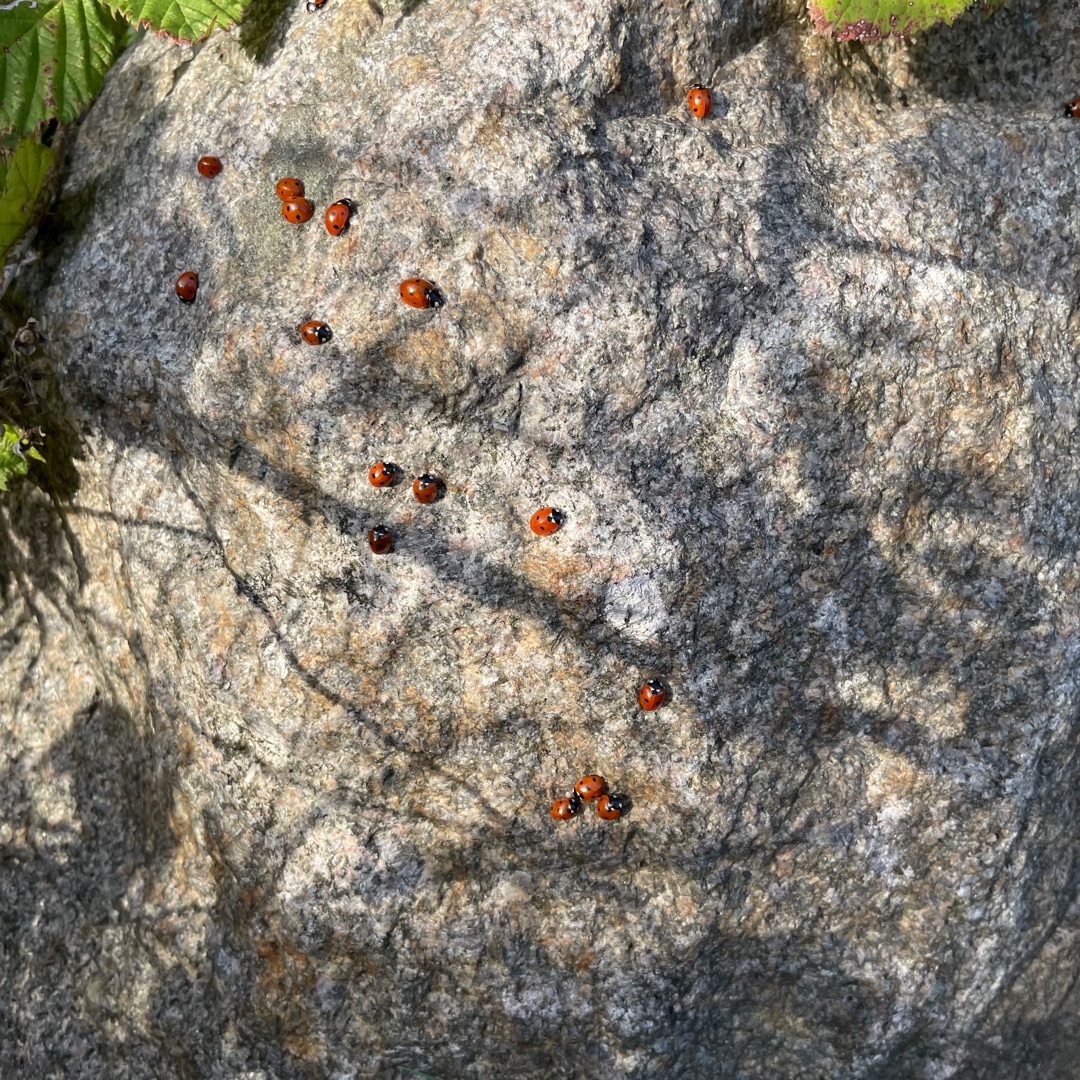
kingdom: Animalia
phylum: Arthropoda
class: Insecta
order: Coleoptera
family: Coccinellidae
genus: Coccinella
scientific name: Coccinella septempunctata
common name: Syvplettet mariehøne
